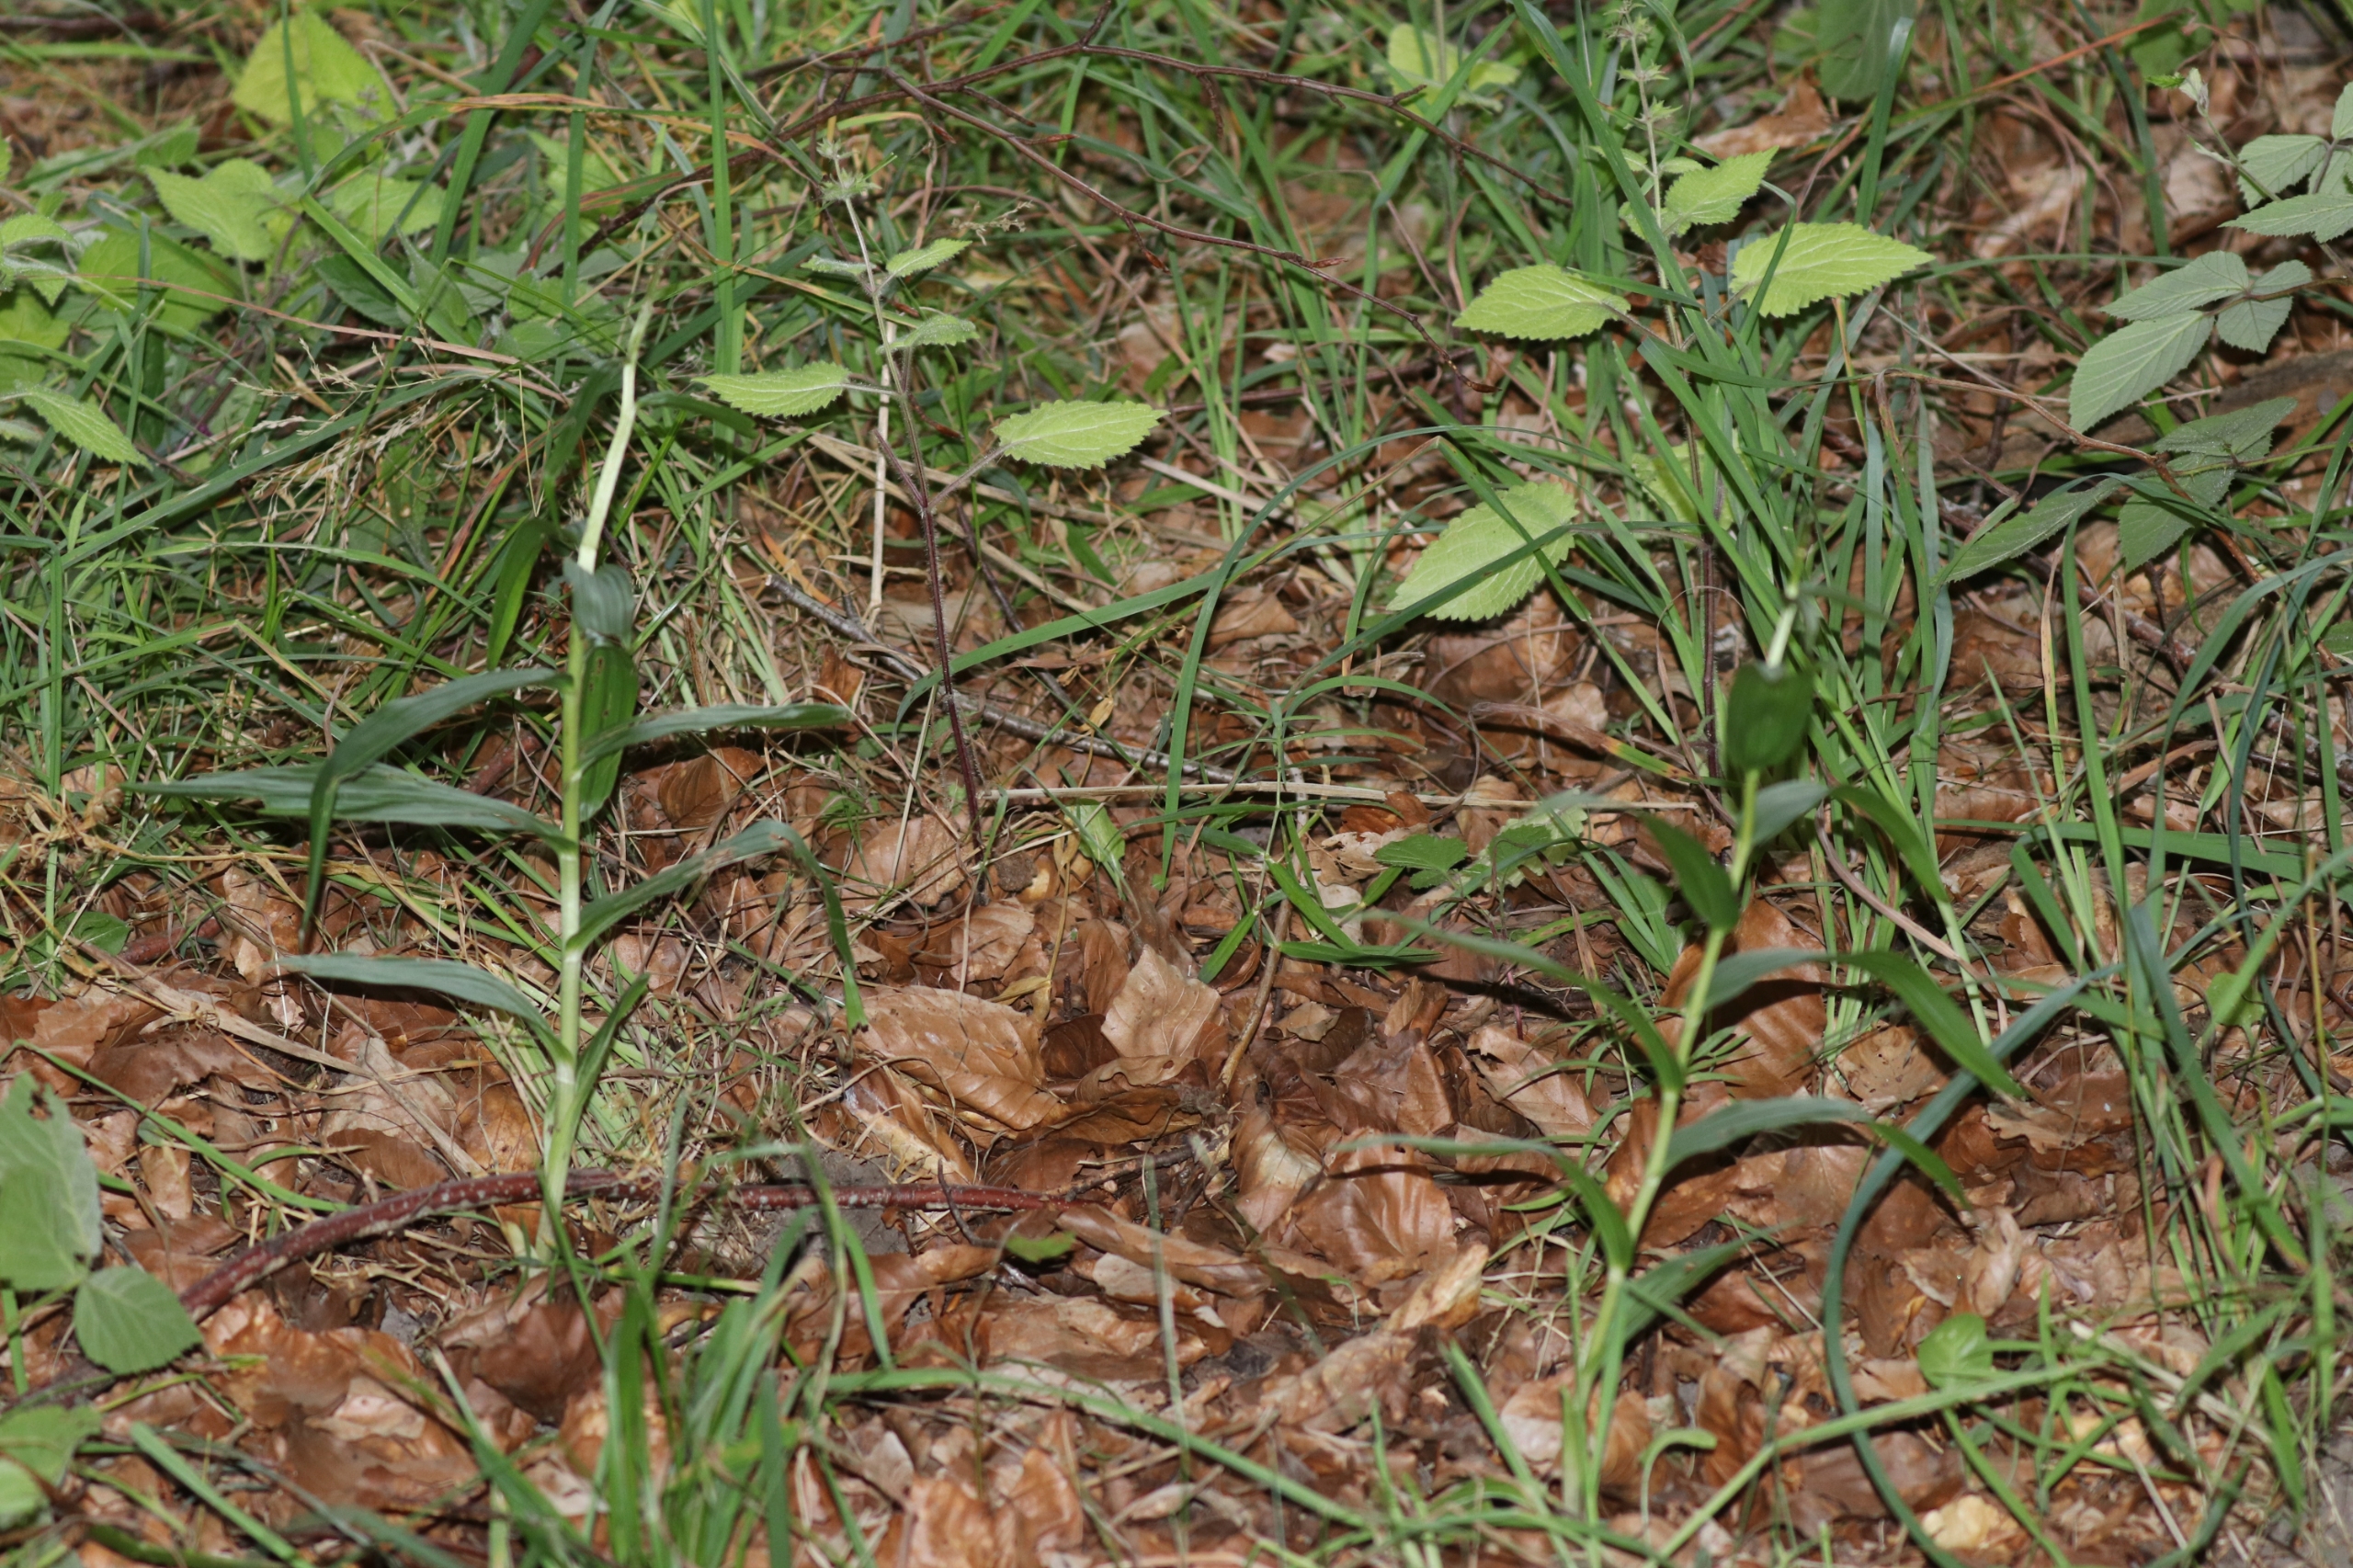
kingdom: Plantae
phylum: Tracheophyta
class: Liliopsida
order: Asparagales
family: Orchidaceae
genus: Cephalanthera
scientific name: Cephalanthera longifolia
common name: Sværd-skovlilje
